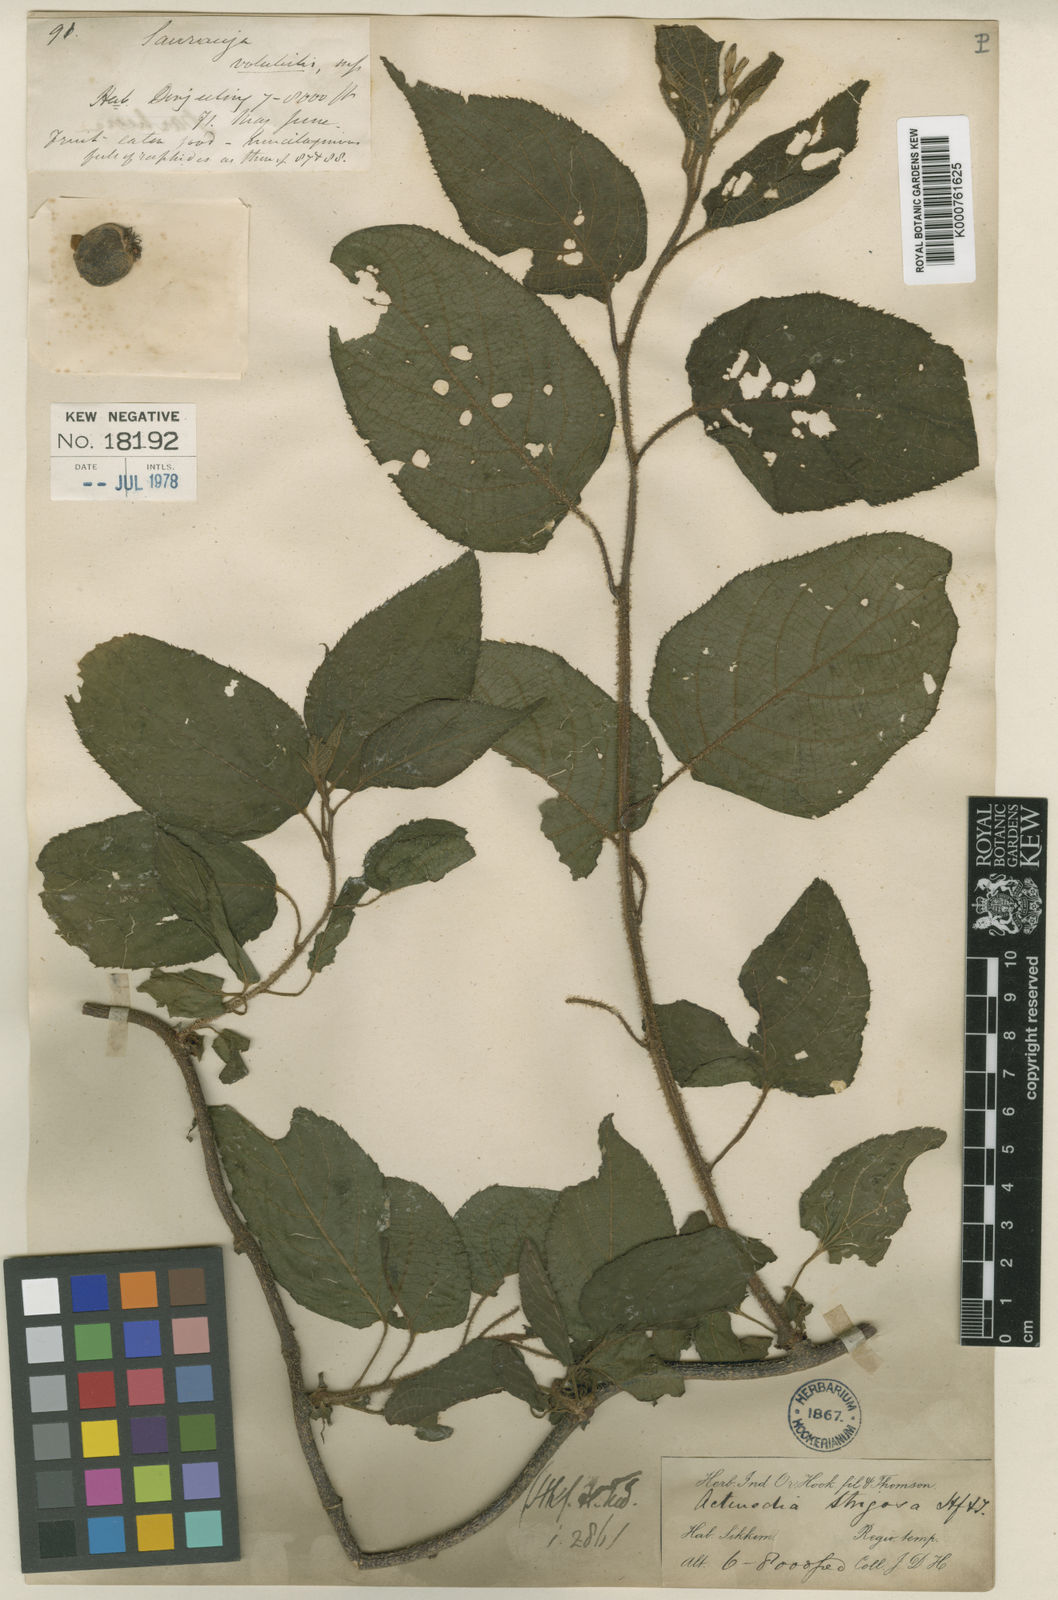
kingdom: Plantae
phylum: Tracheophyta
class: Magnoliopsida
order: Ericales
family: Actinidiaceae
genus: Actinidia
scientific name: Actinidia strigosa
